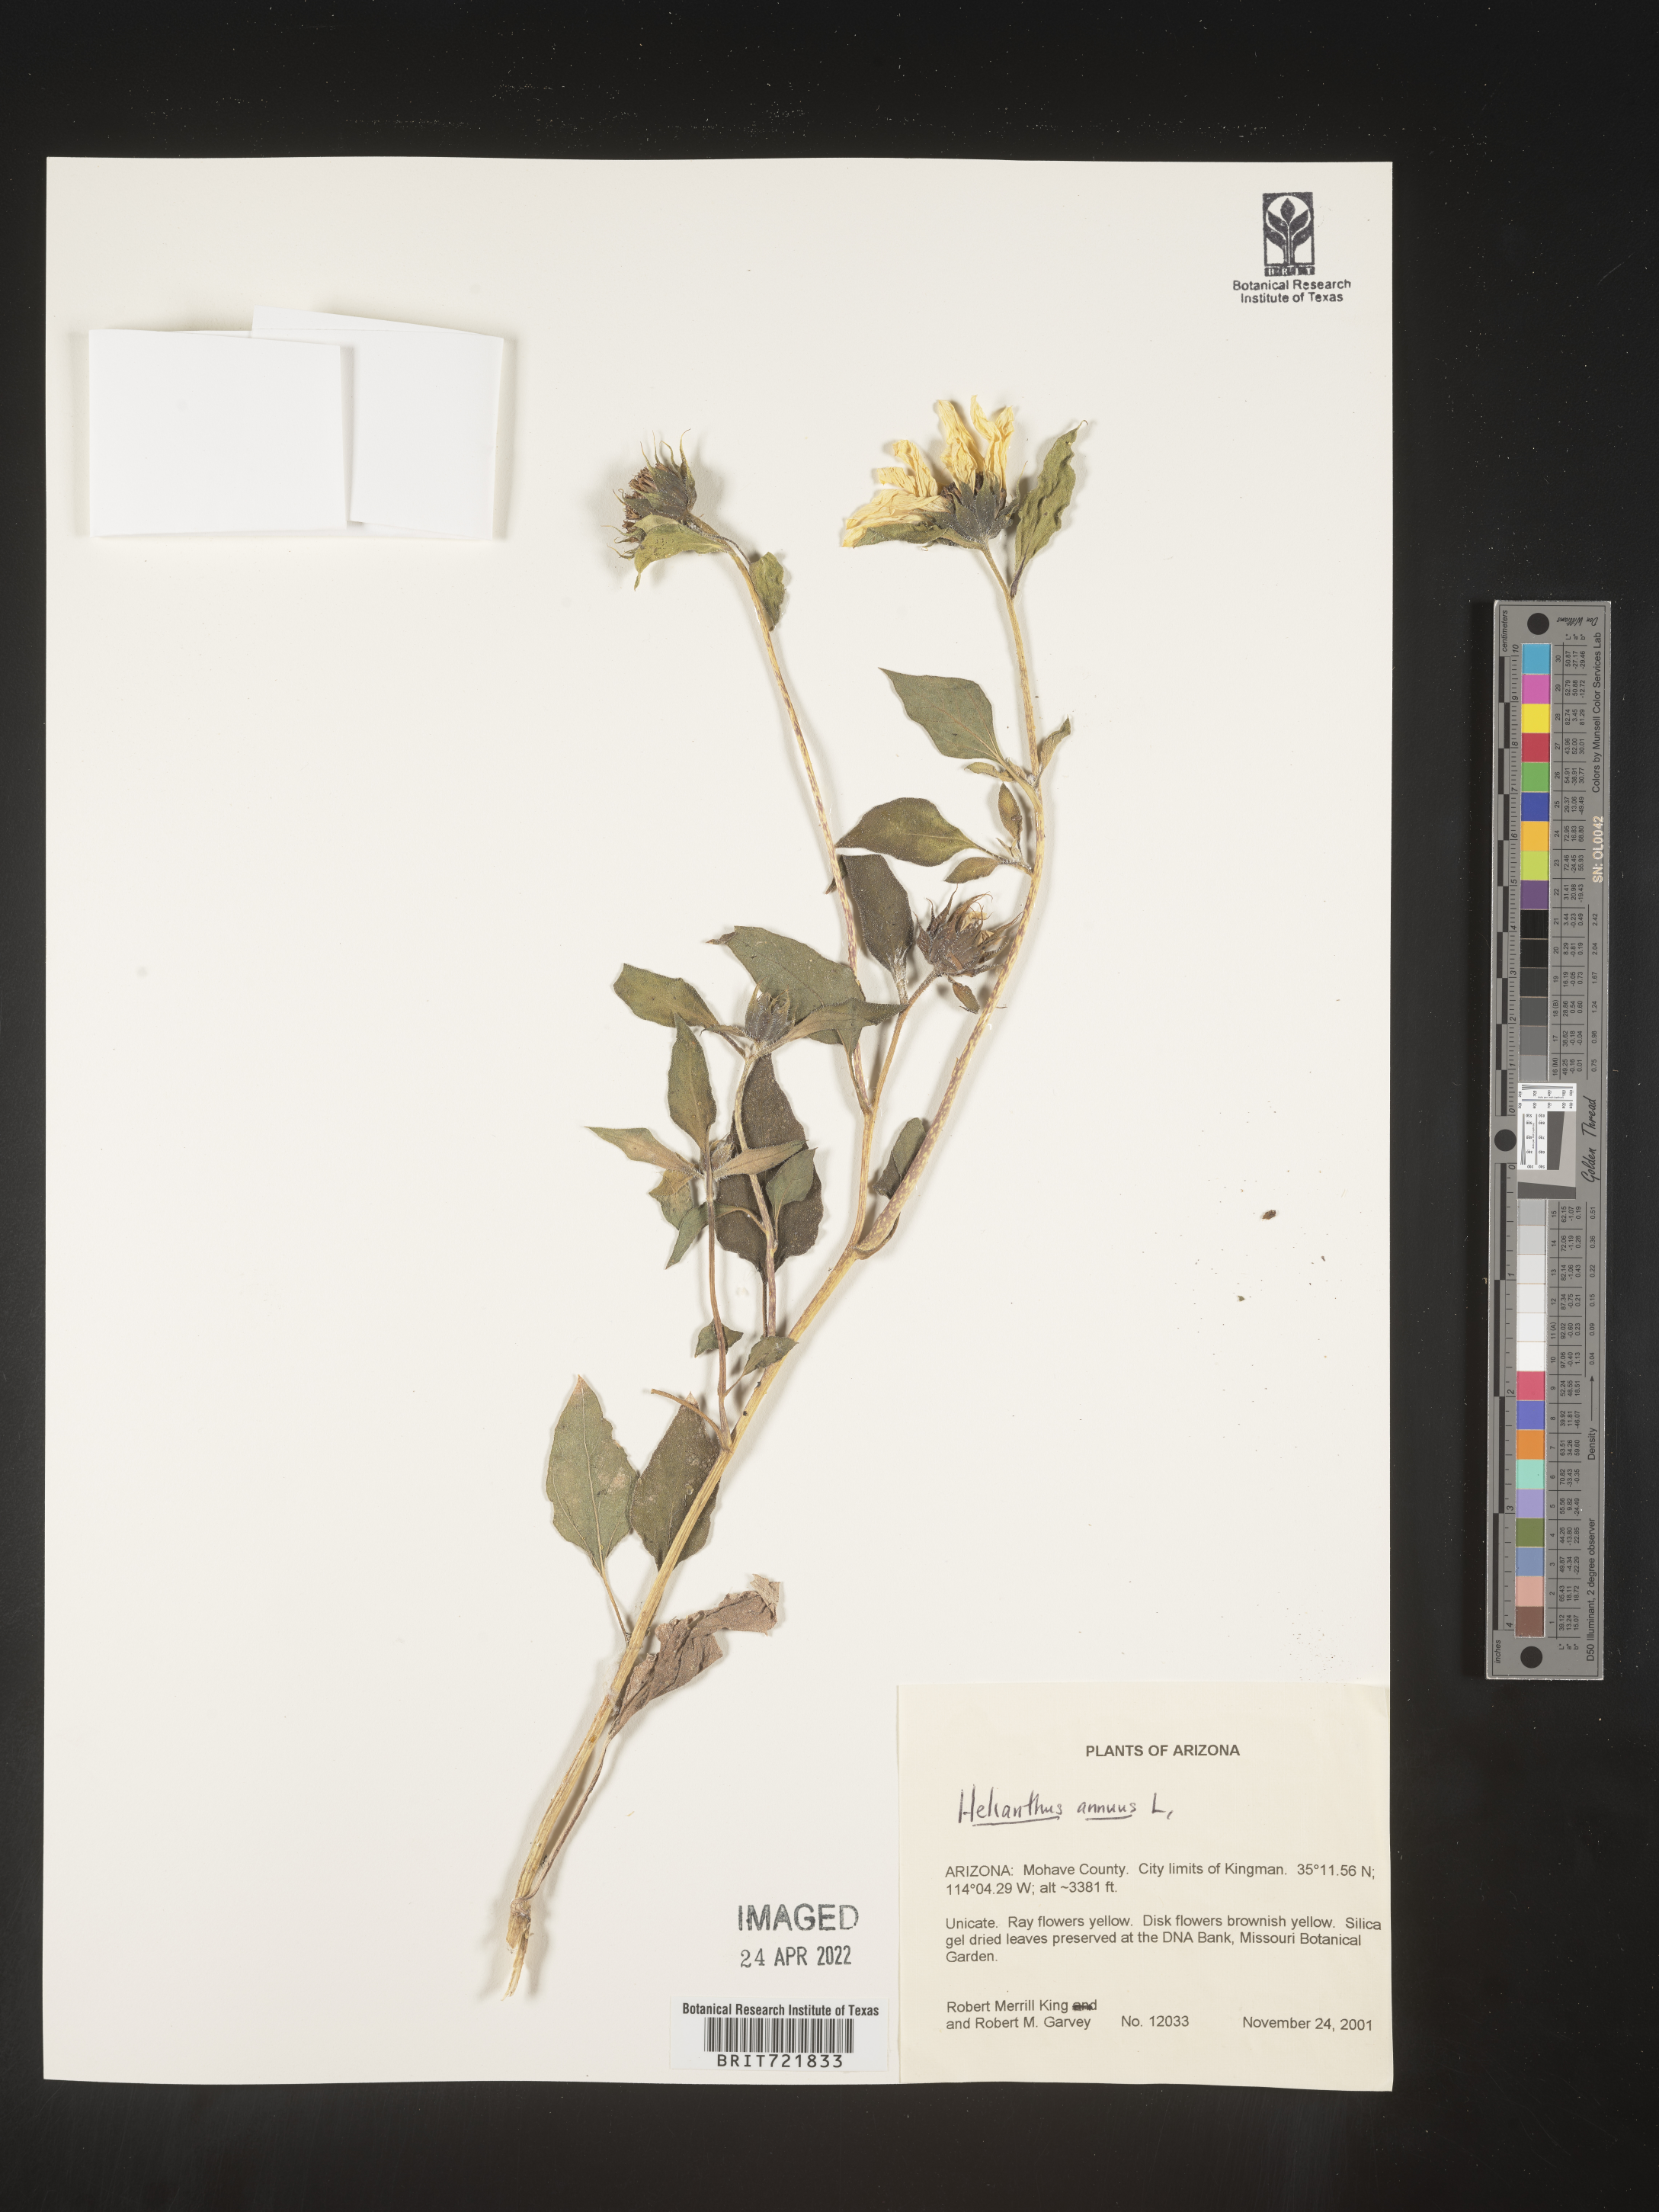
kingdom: Plantae
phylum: Tracheophyta
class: Magnoliopsida
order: Asterales
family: Asteraceae
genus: Helianthus
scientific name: Helianthus annuus
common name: Sunflower
